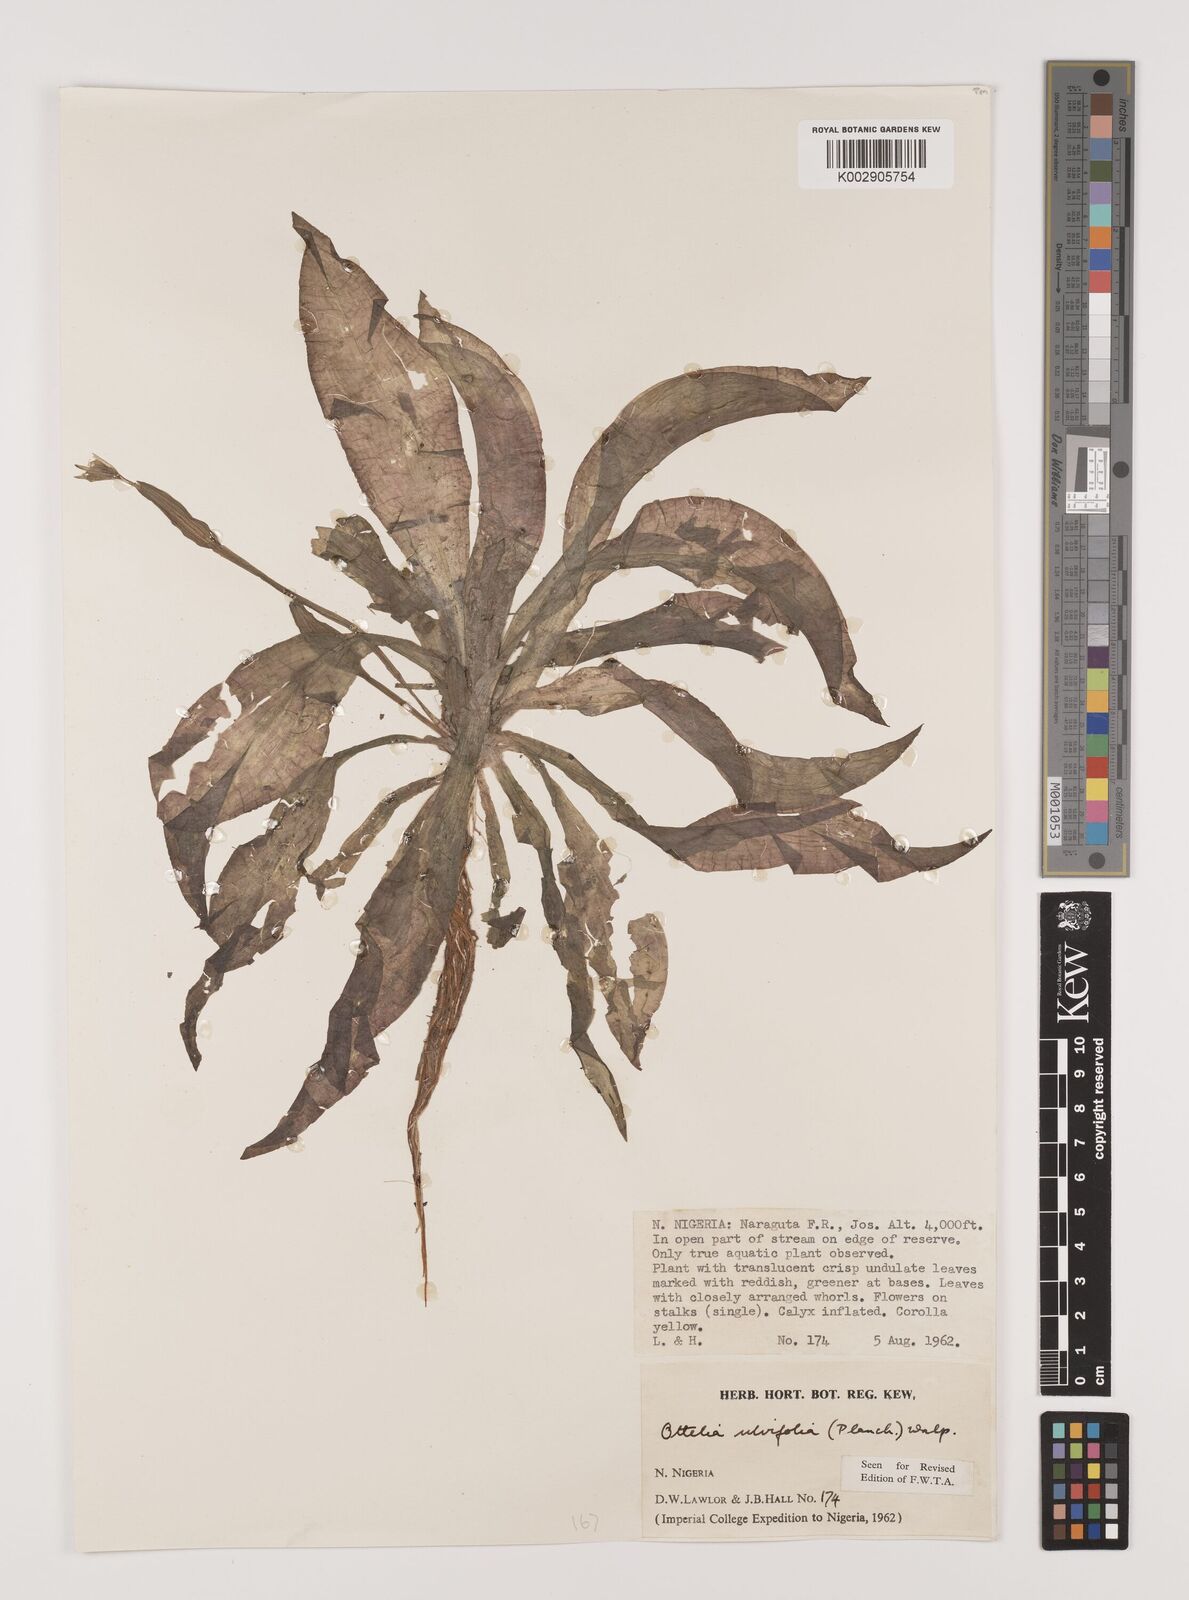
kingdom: Plantae
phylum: Tracheophyta
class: Liliopsida
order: Alismatales
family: Hydrocharitaceae
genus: Ottelia
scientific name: Ottelia ulvifolia
